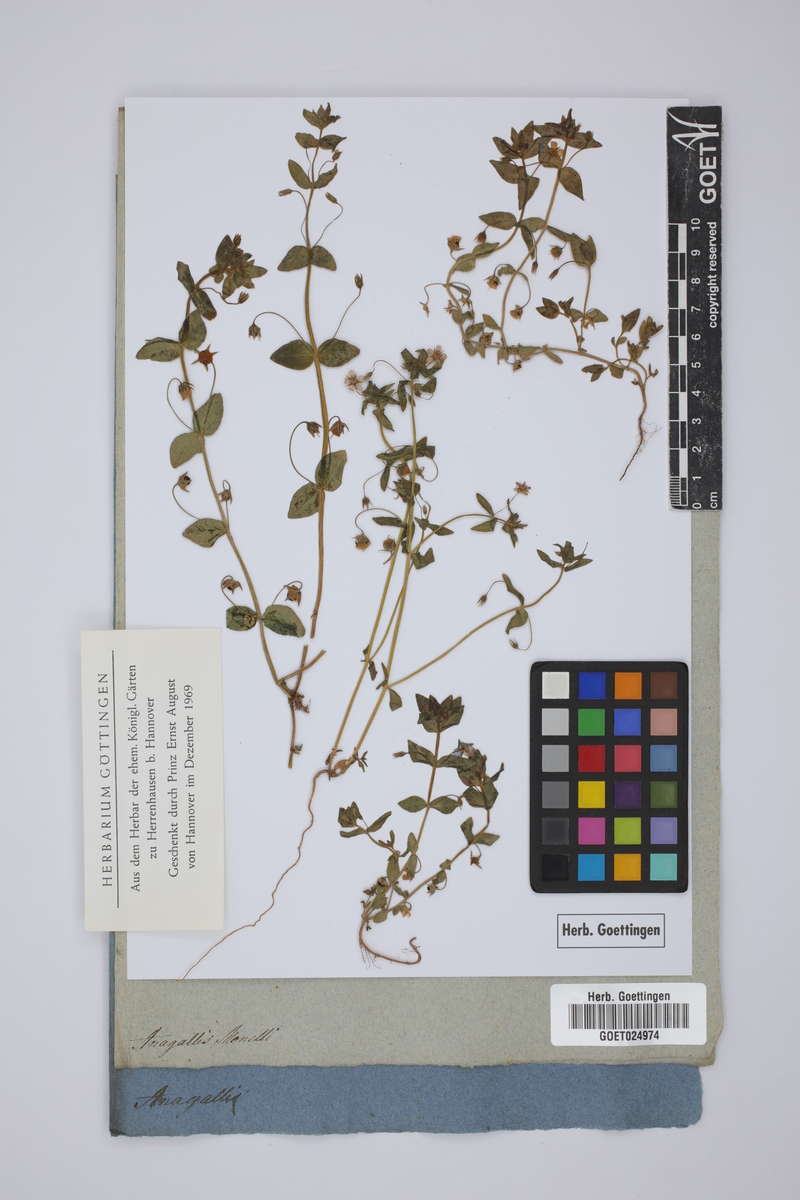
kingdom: Plantae
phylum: Tracheophyta
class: Magnoliopsida
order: Ericales
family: Primulaceae
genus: Lysimachia
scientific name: Lysimachia monelli
